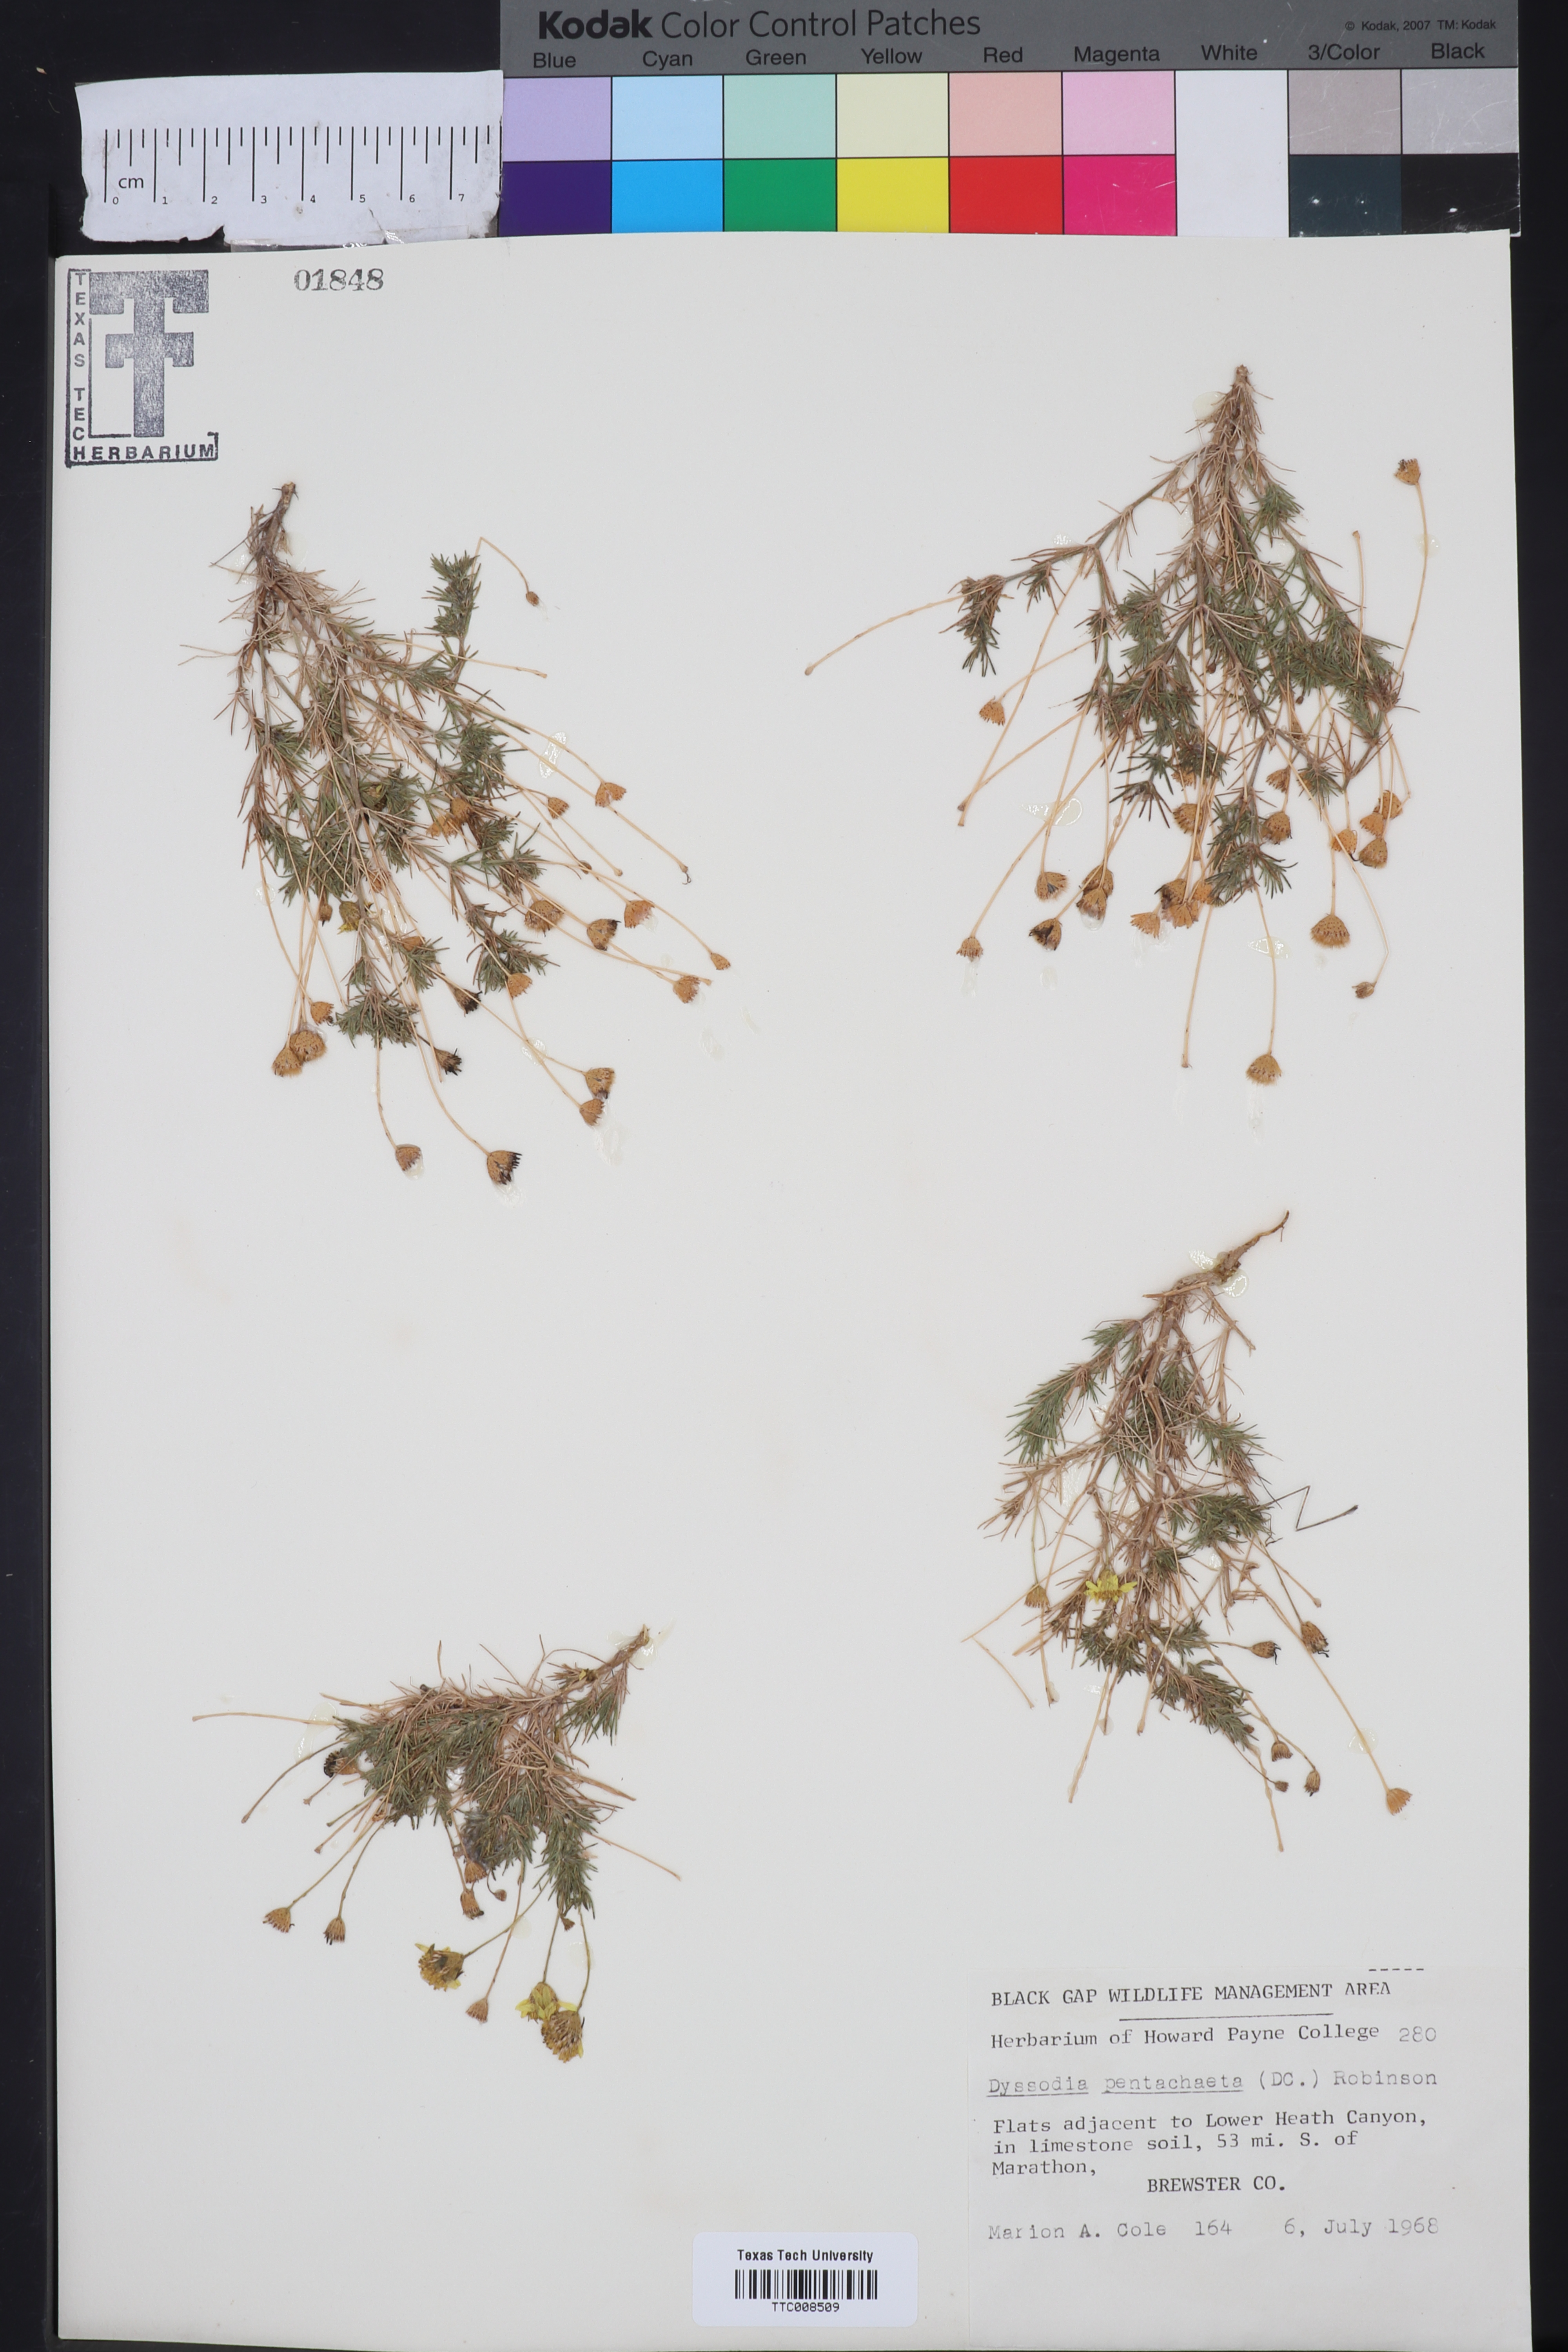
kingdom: Plantae
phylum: Tracheophyta
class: Magnoliopsida
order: Asterales
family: Asteraceae
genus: Thymophylla
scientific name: Thymophylla pentachaeta
